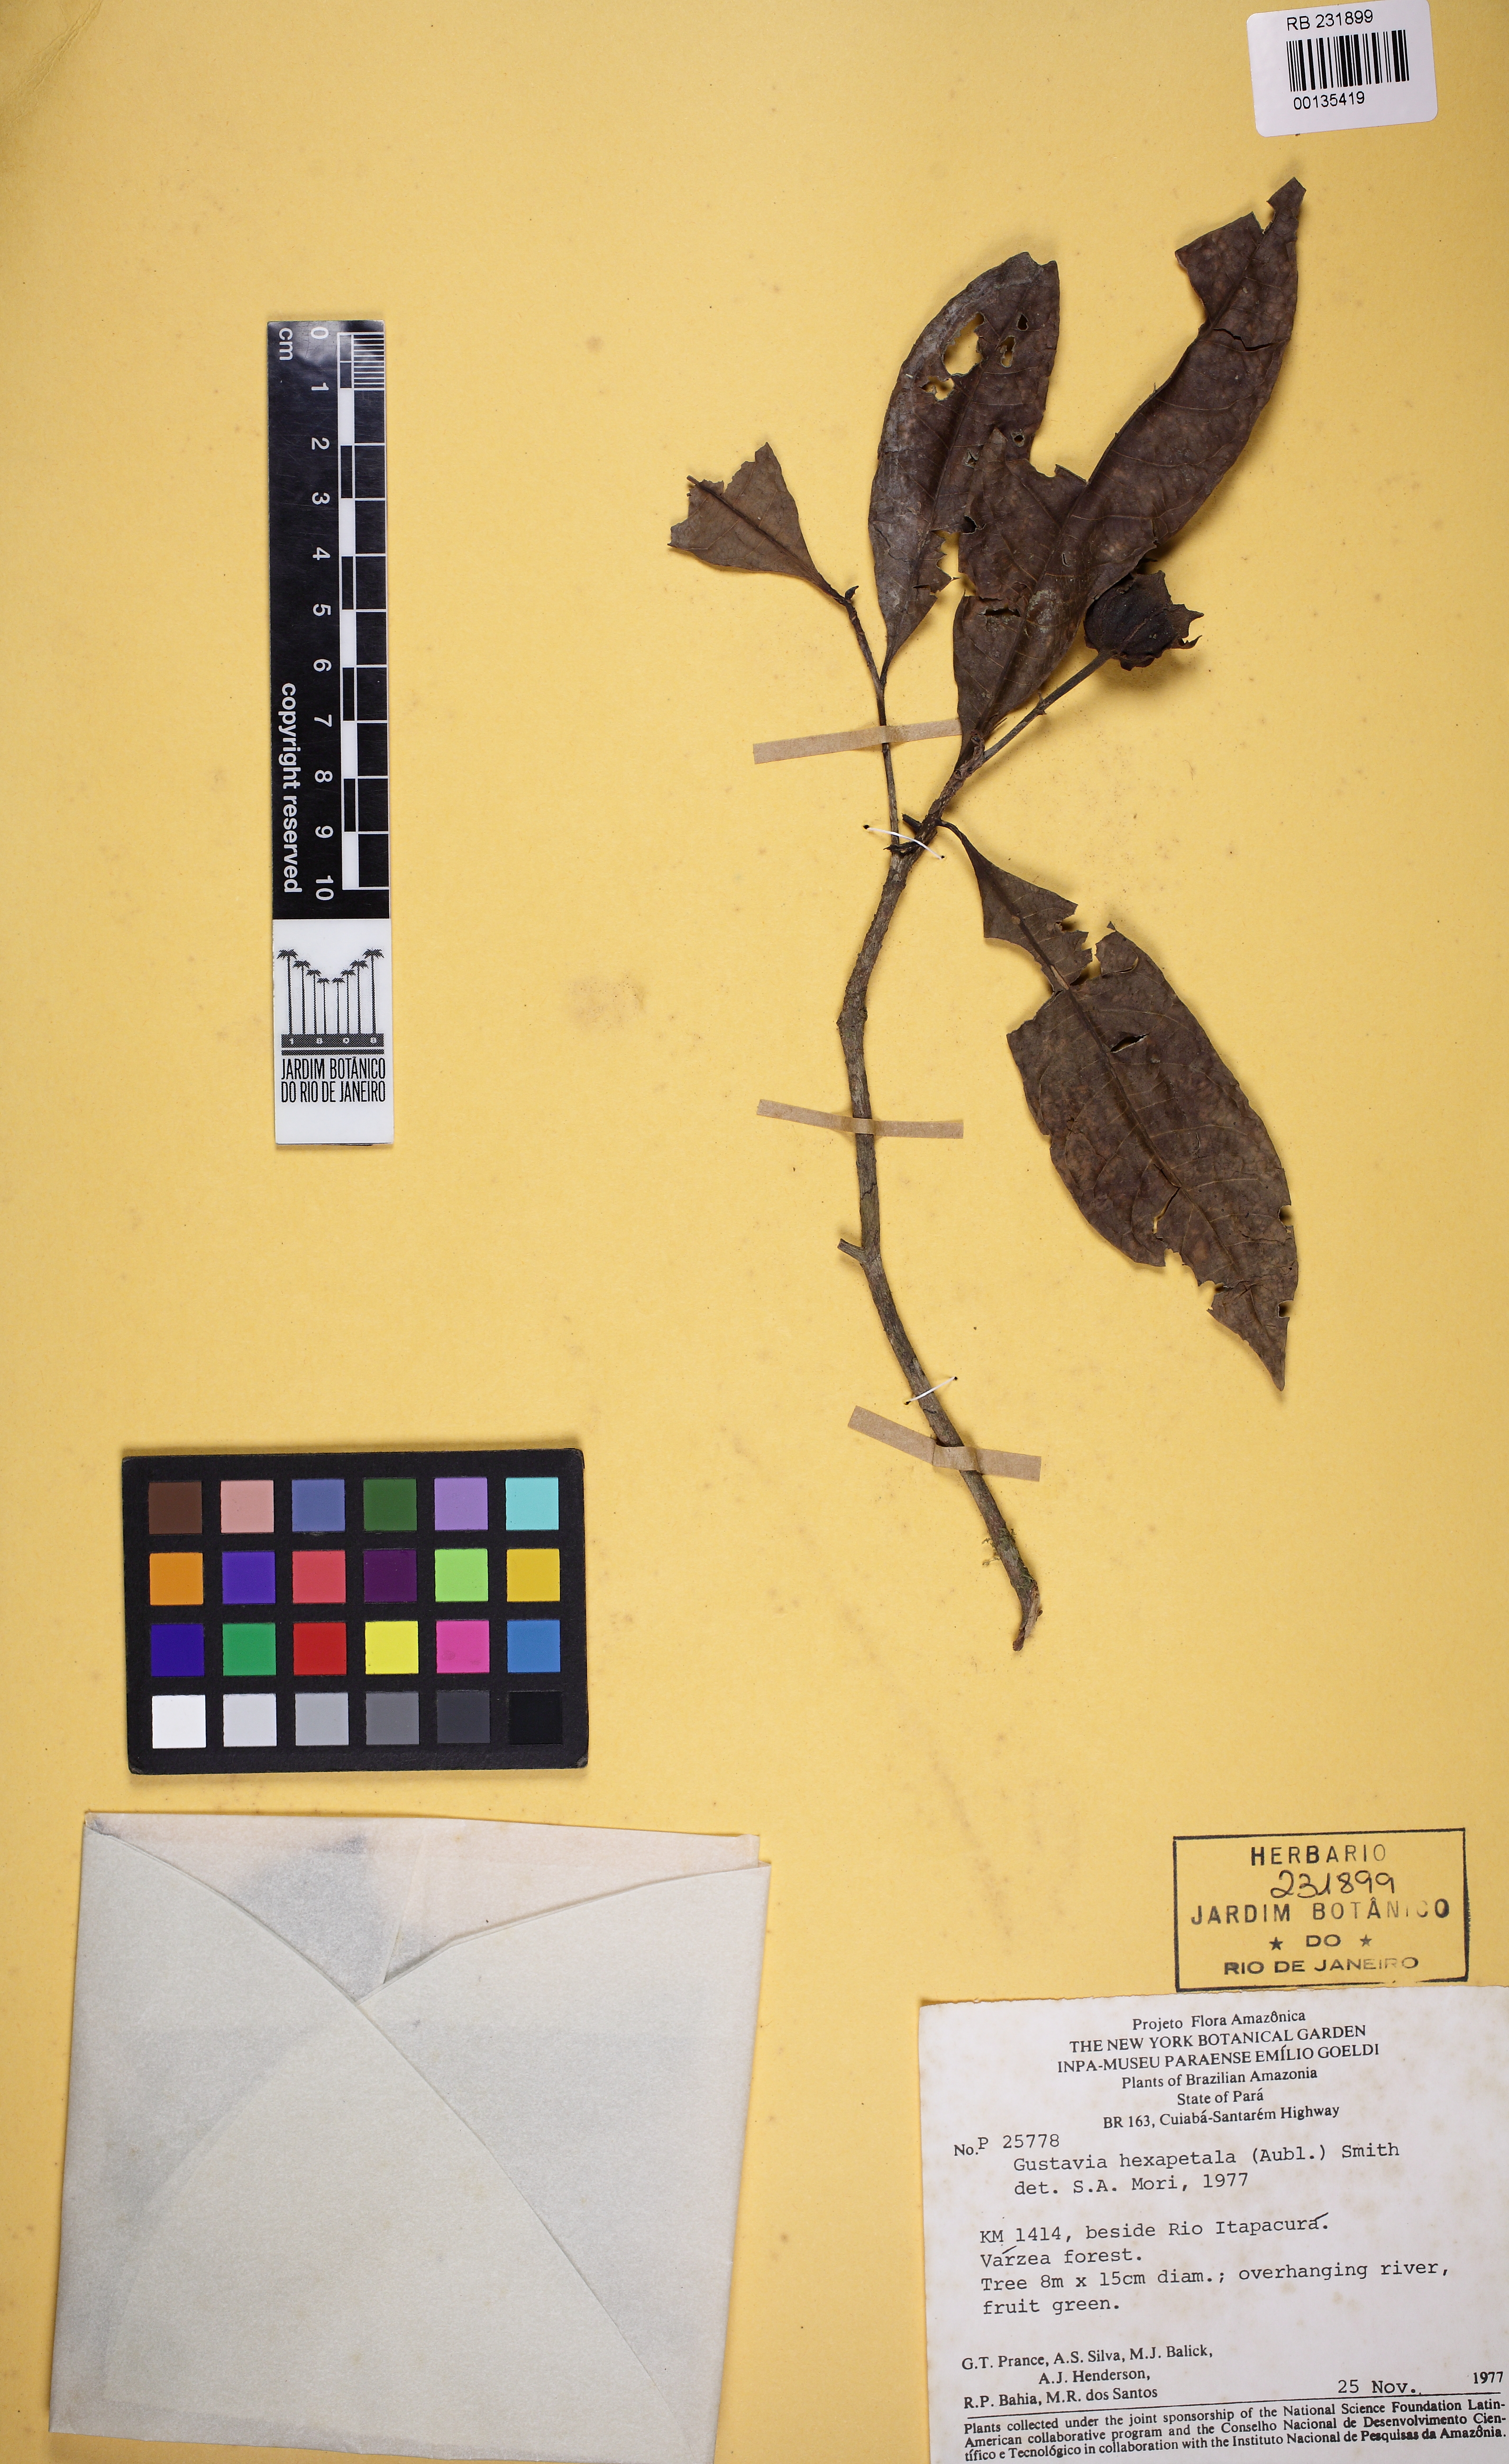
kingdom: Plantae
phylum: Tracheophyta
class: Magnoliopsida
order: Ericales
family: Lecythidaceae
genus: Gustavia
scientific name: Gustavia hexapetala
